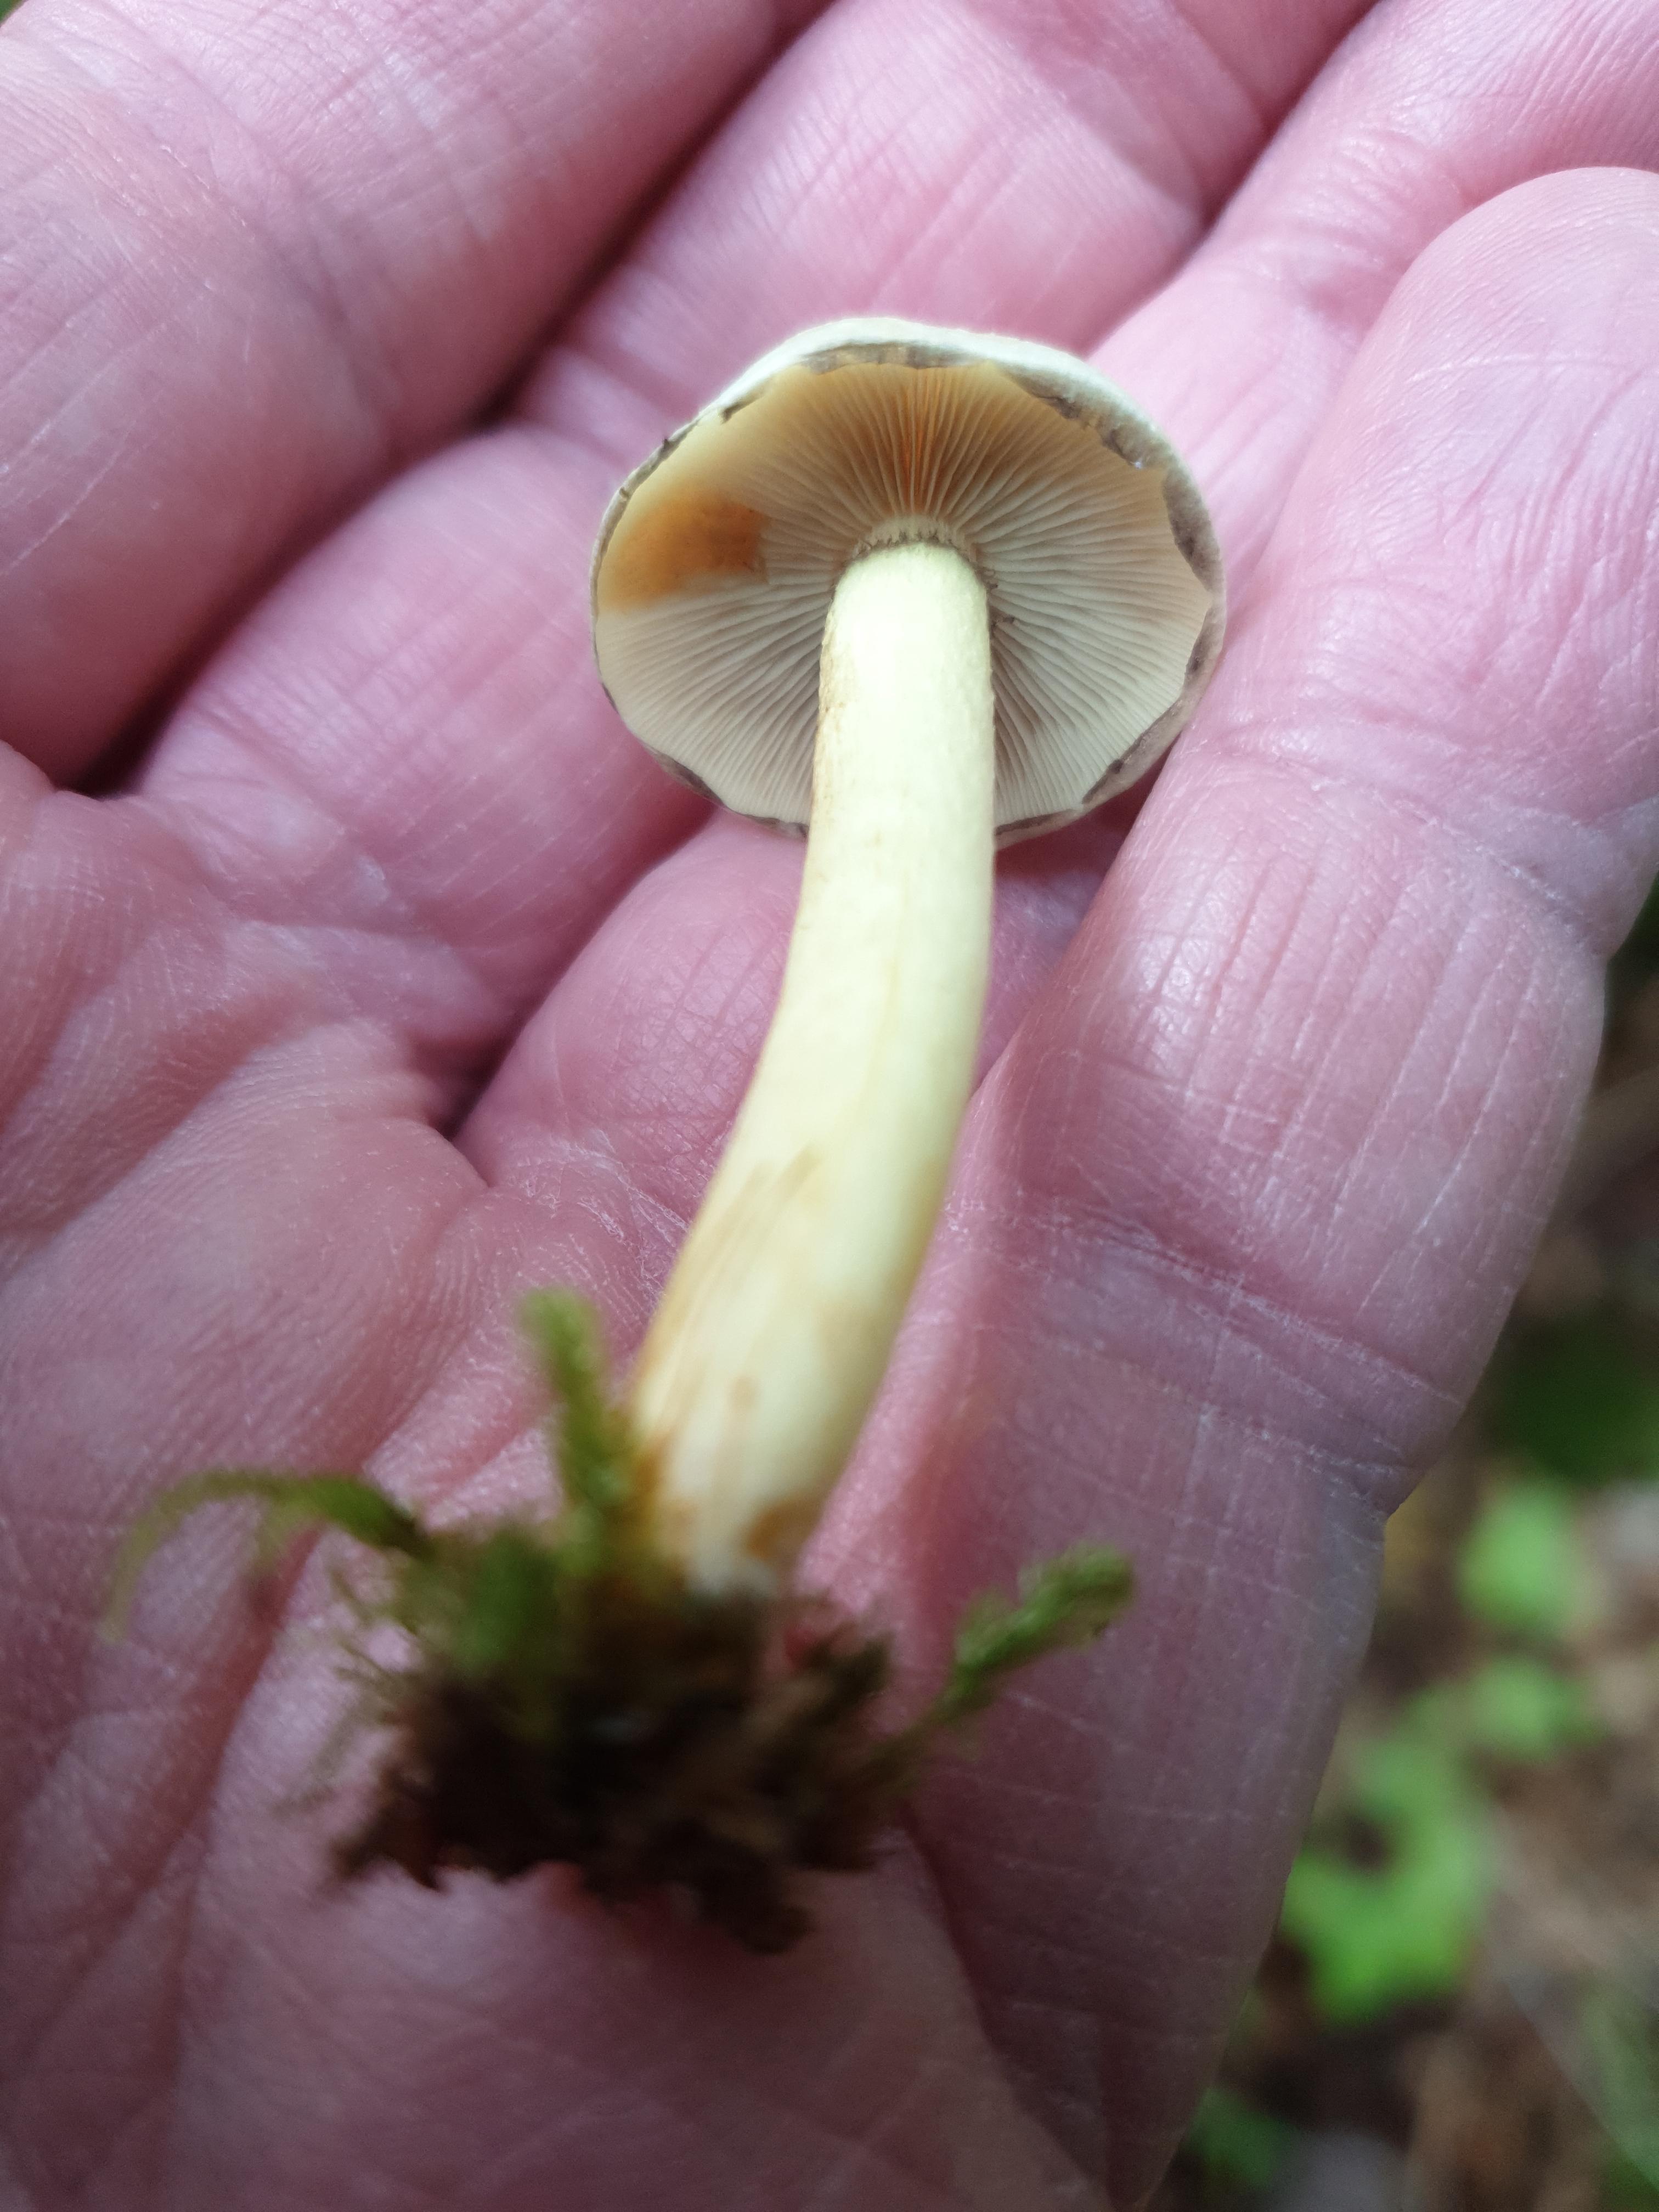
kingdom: Fungi
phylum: Basidiomycota
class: Agaricomycetes
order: Agaricales
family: Strophariaceae
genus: Hypholoma
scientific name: Hypholoma lateritium
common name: teglrød svovlhat
